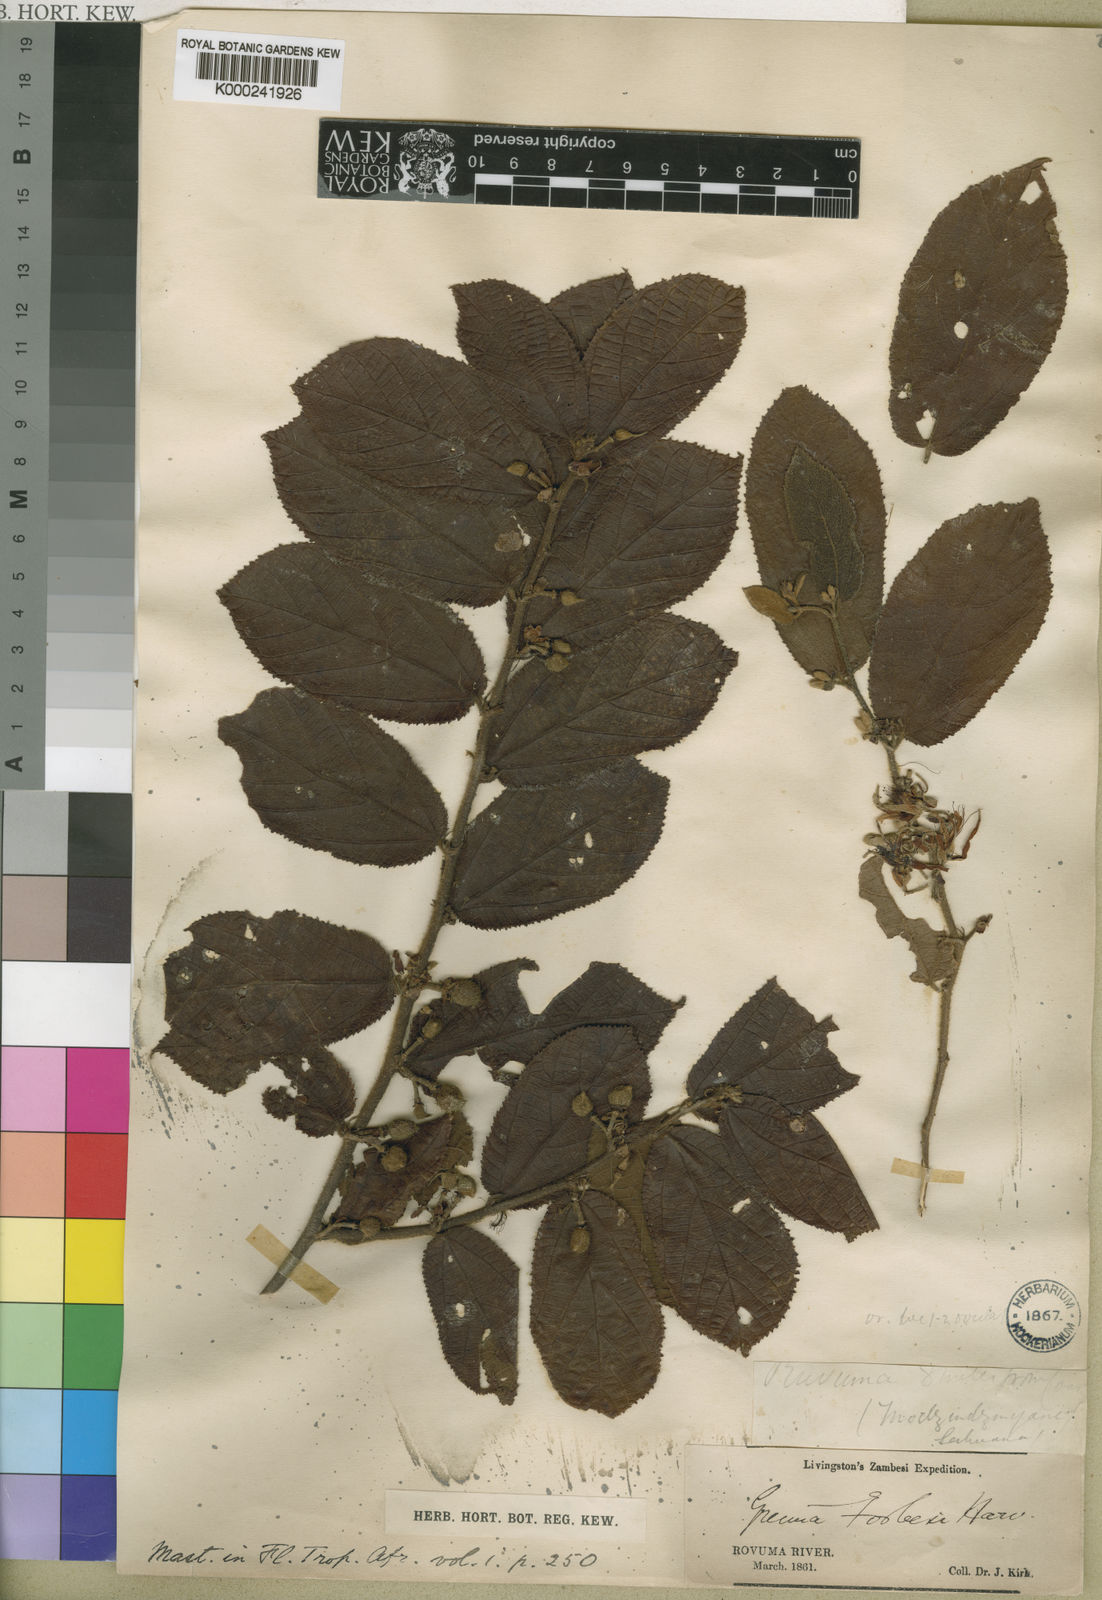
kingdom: Plantae
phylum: Tracheophyta
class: Magnoliopsida
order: Malvales
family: Malvaceae
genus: Grewia
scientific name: Grewia forbesii
